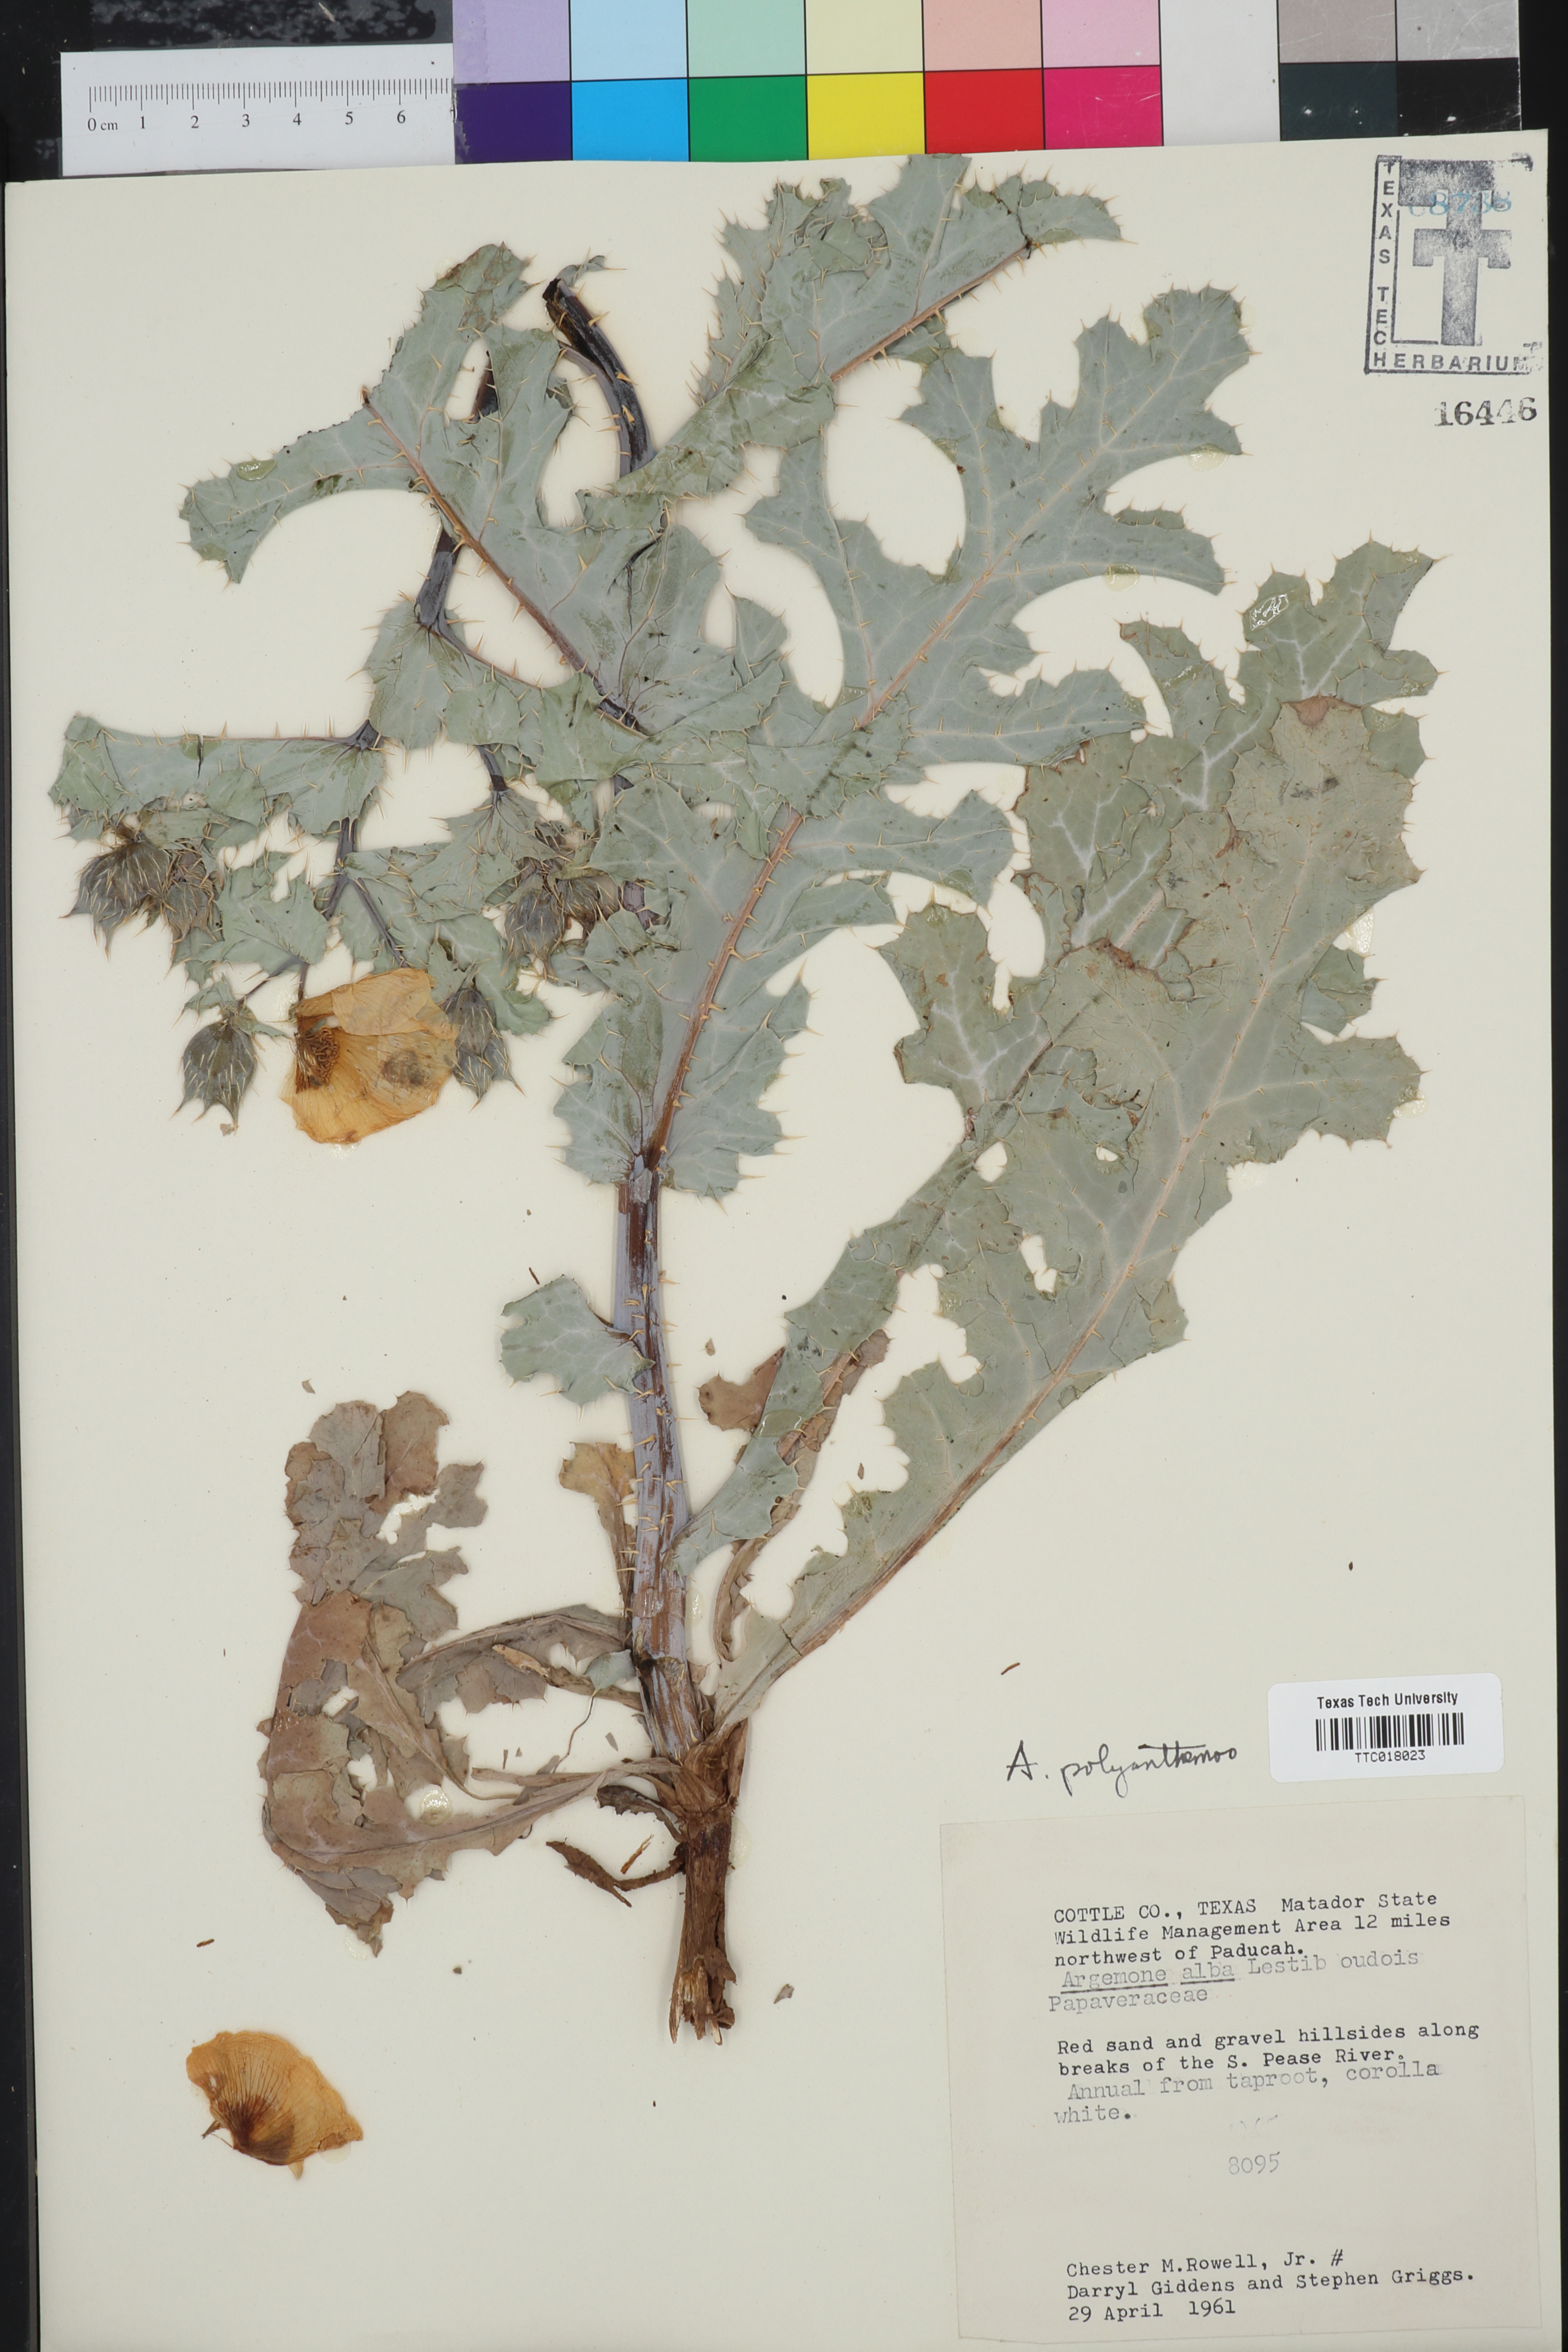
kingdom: Plantae
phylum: Tracheophyta
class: Magnoliopsida
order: Ranunculales
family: Papaveraceae
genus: Argemone
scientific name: Argemone polyanthemos
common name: Plains prickly-poppy
